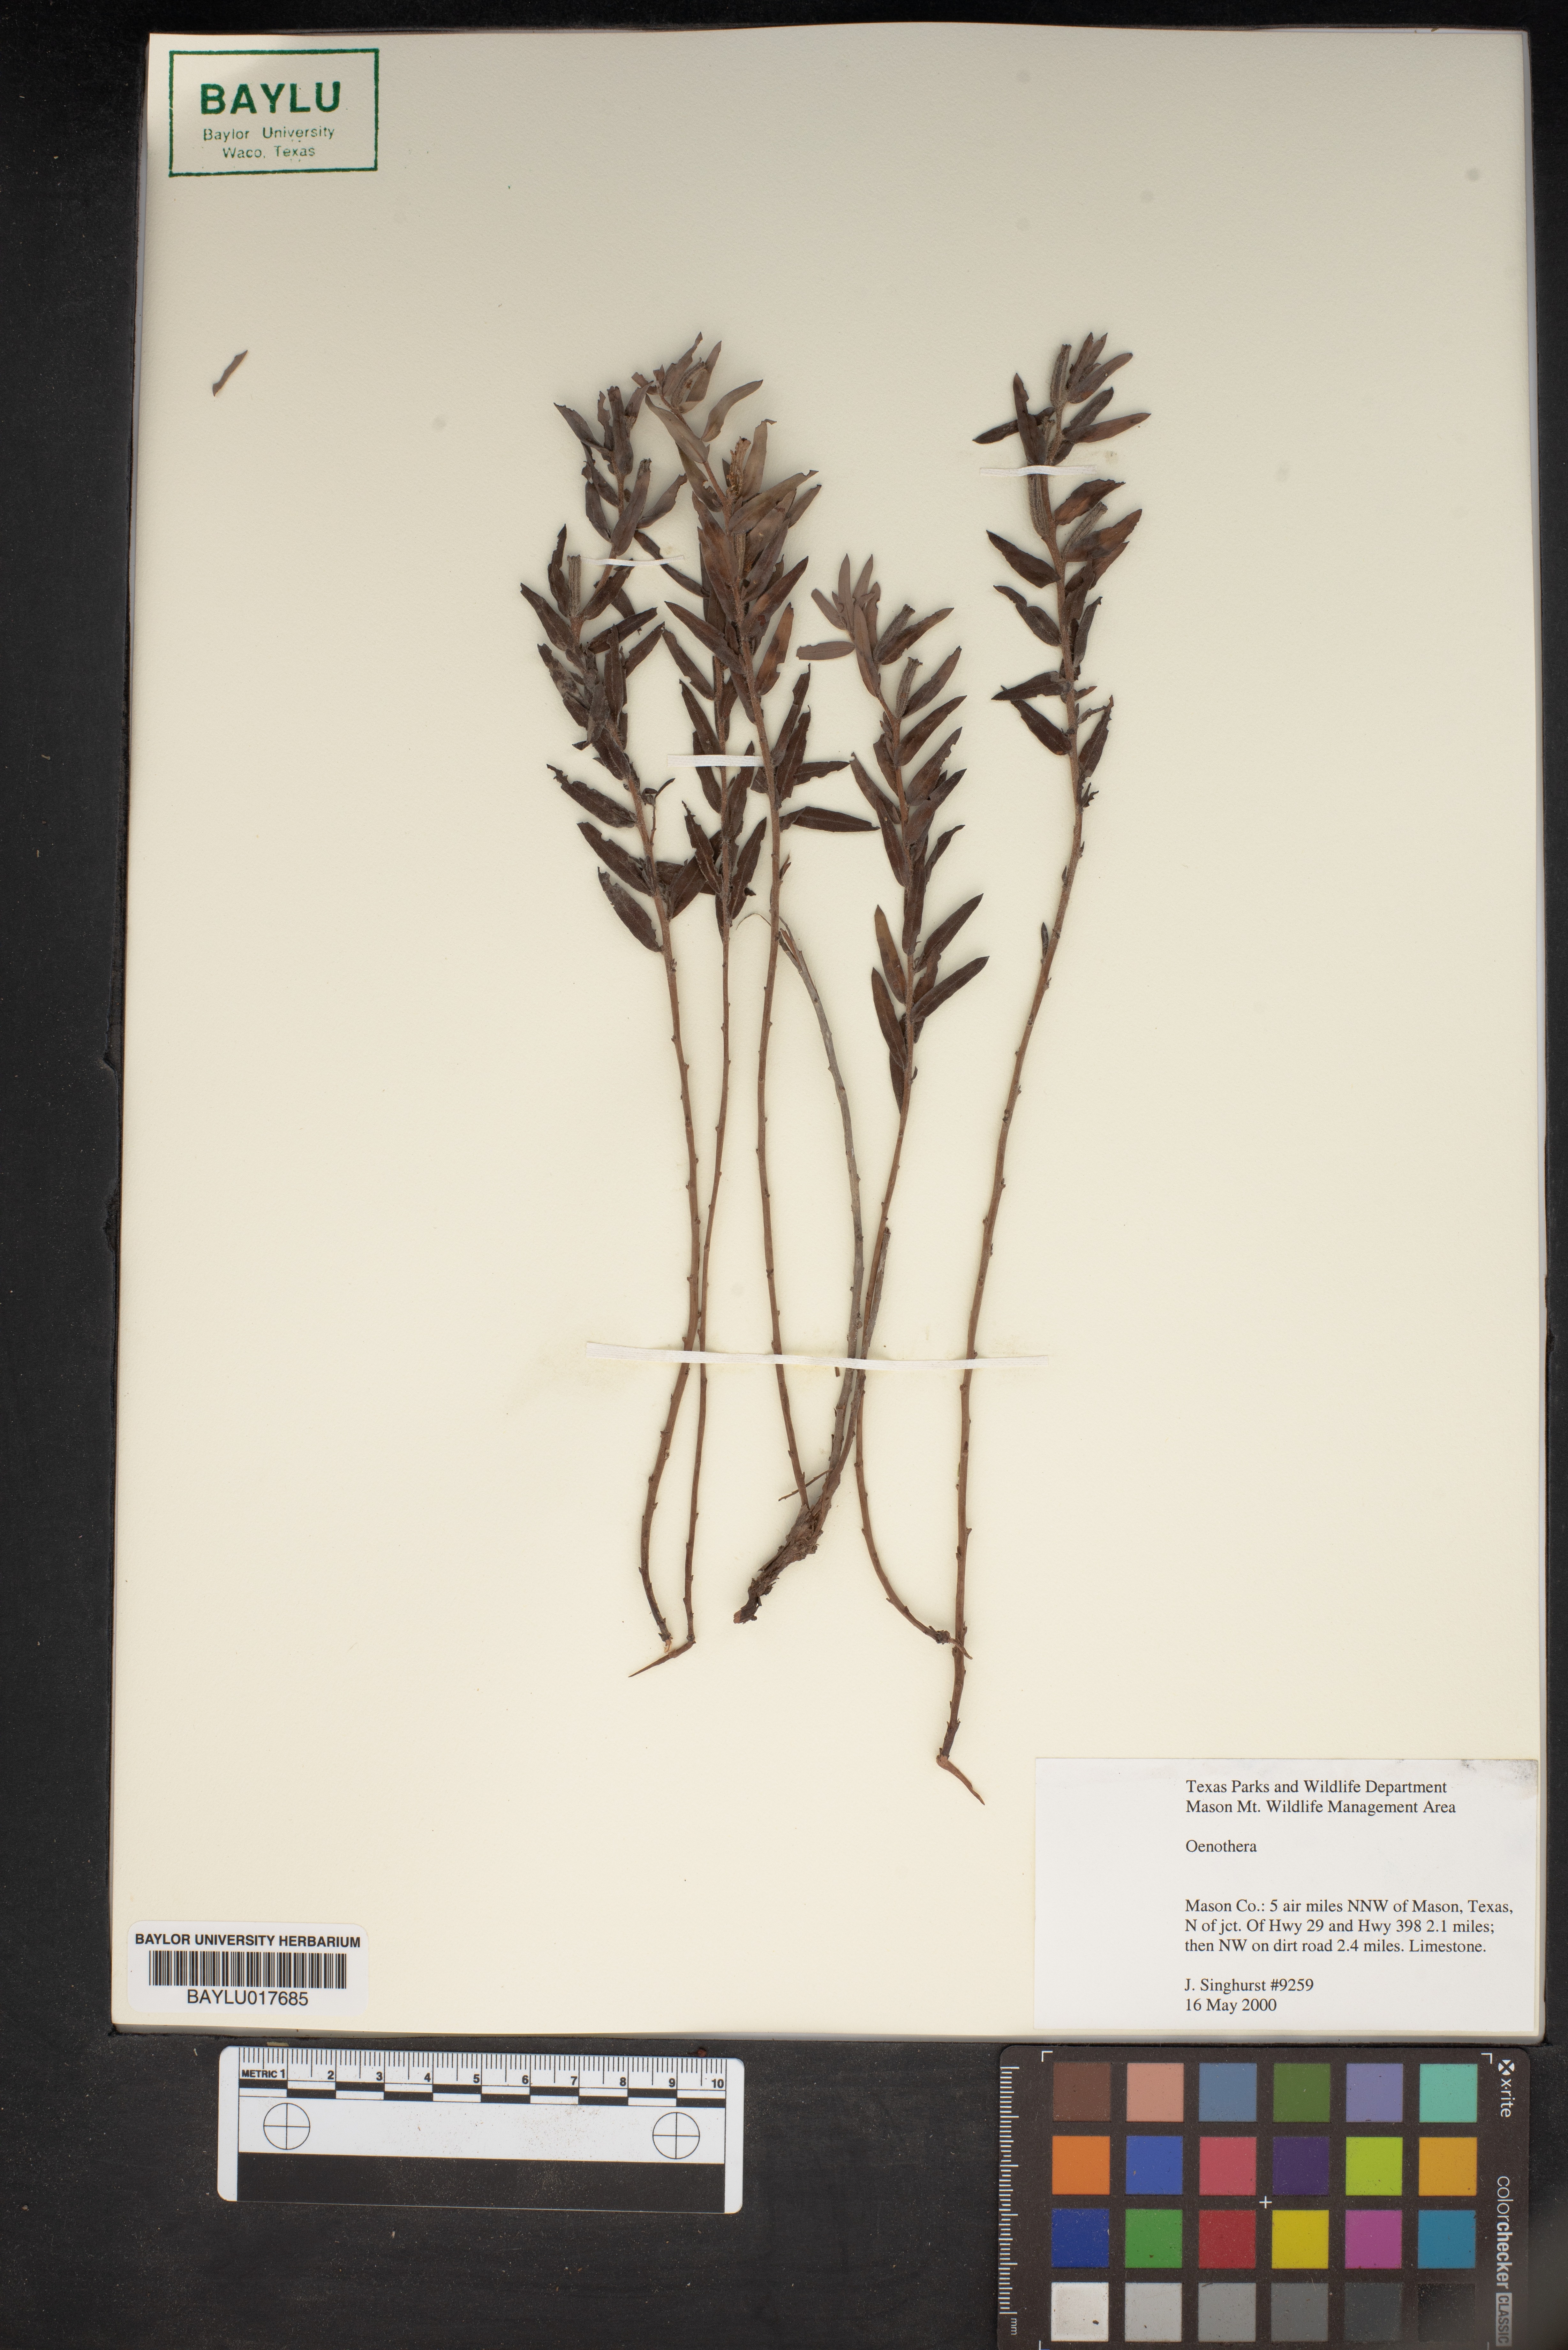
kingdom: Plantae
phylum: Tracheophyta
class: Magnoliopsida
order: Myrtales
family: Onagraceae
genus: Oenothera
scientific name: Oenothera
